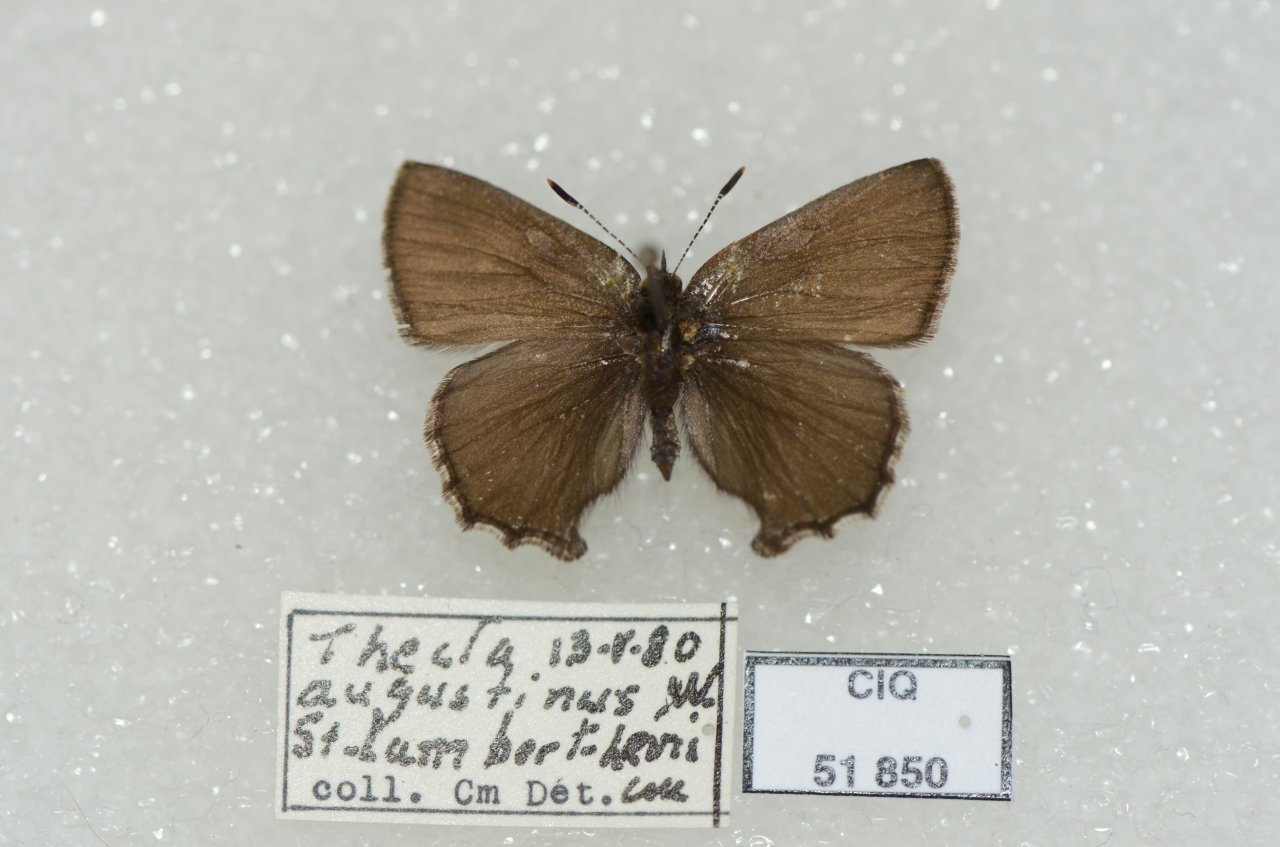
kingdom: Animalia
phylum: Arthropoda
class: Insecta
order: Lepidoptera
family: Lycaenidae
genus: Incisalia
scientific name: Incisalia irioides
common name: Brown Elfin
